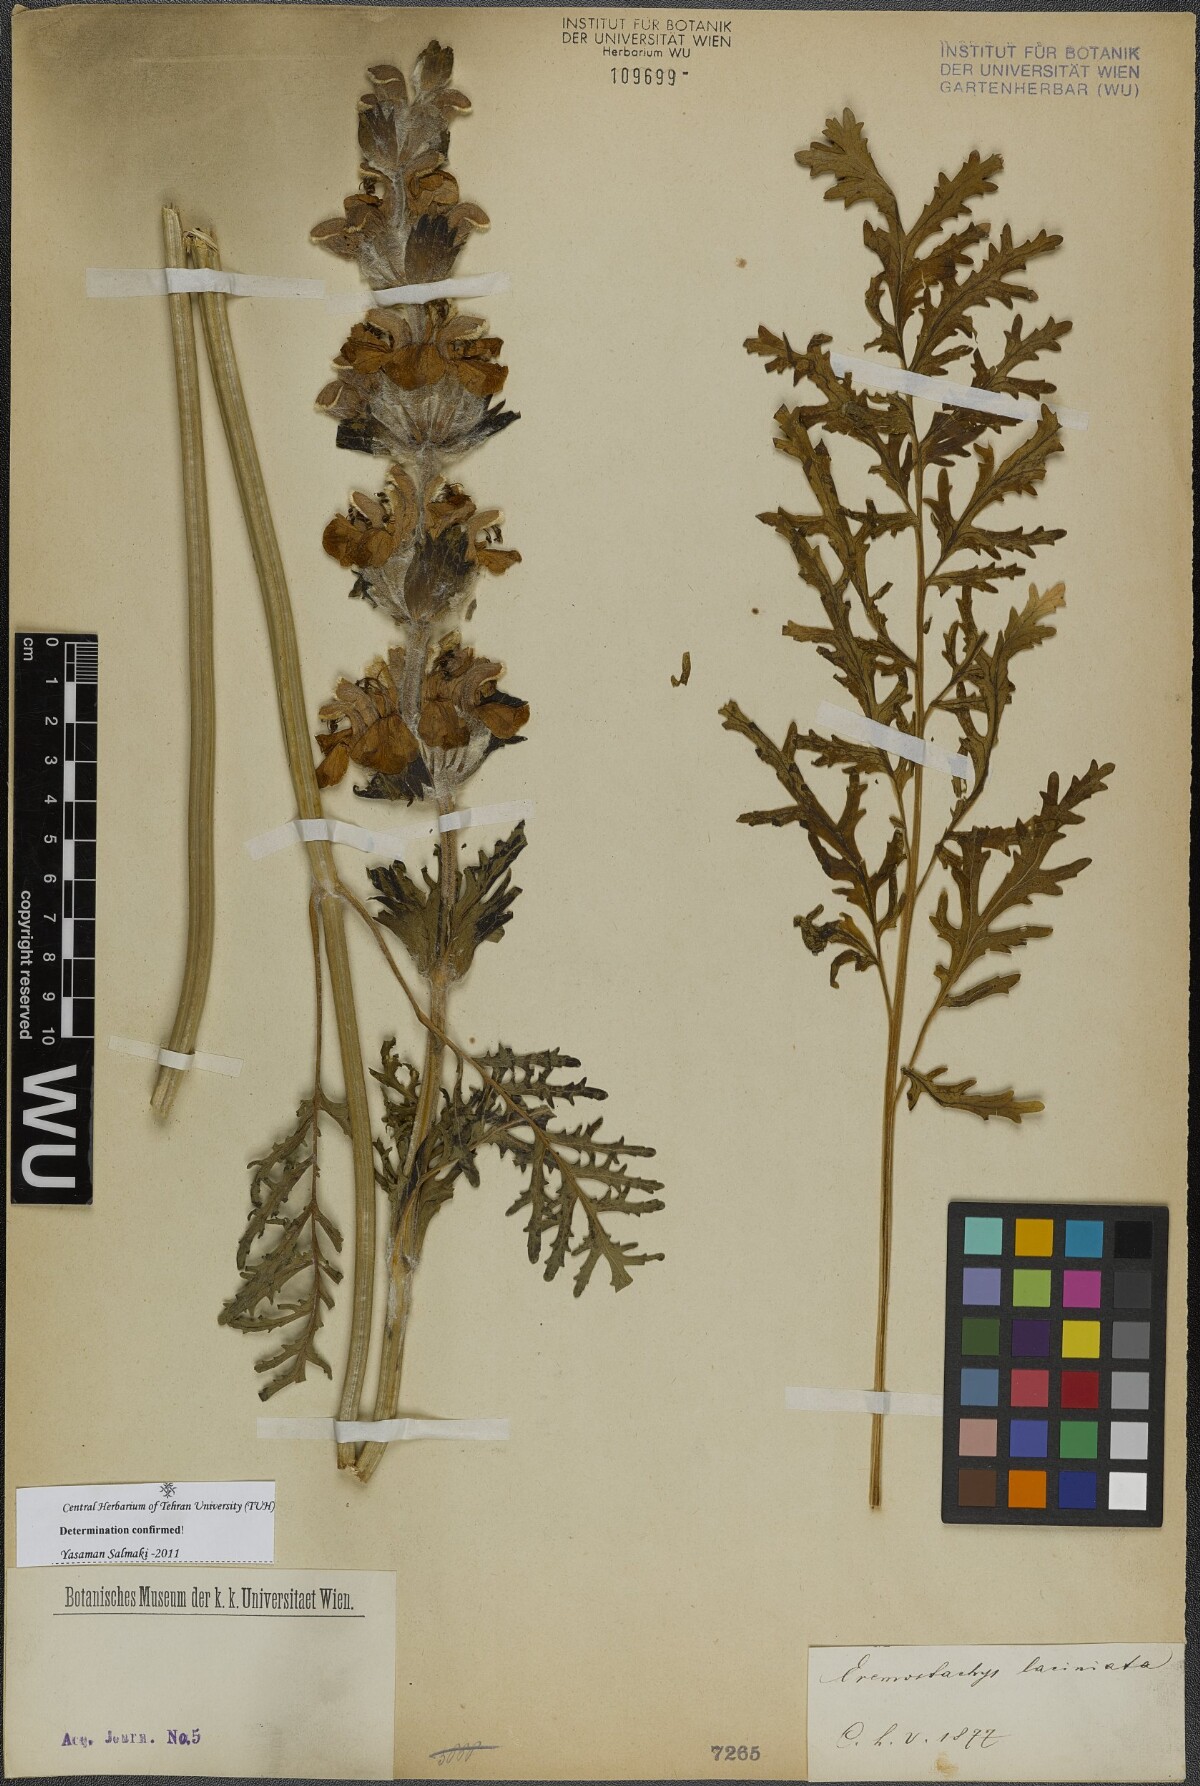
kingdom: Plantae
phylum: Tracheophyta
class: Magnoliopsida
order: Lamiales
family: Lamiaceae
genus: Phlomoides
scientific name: Phlomoides laciniata
